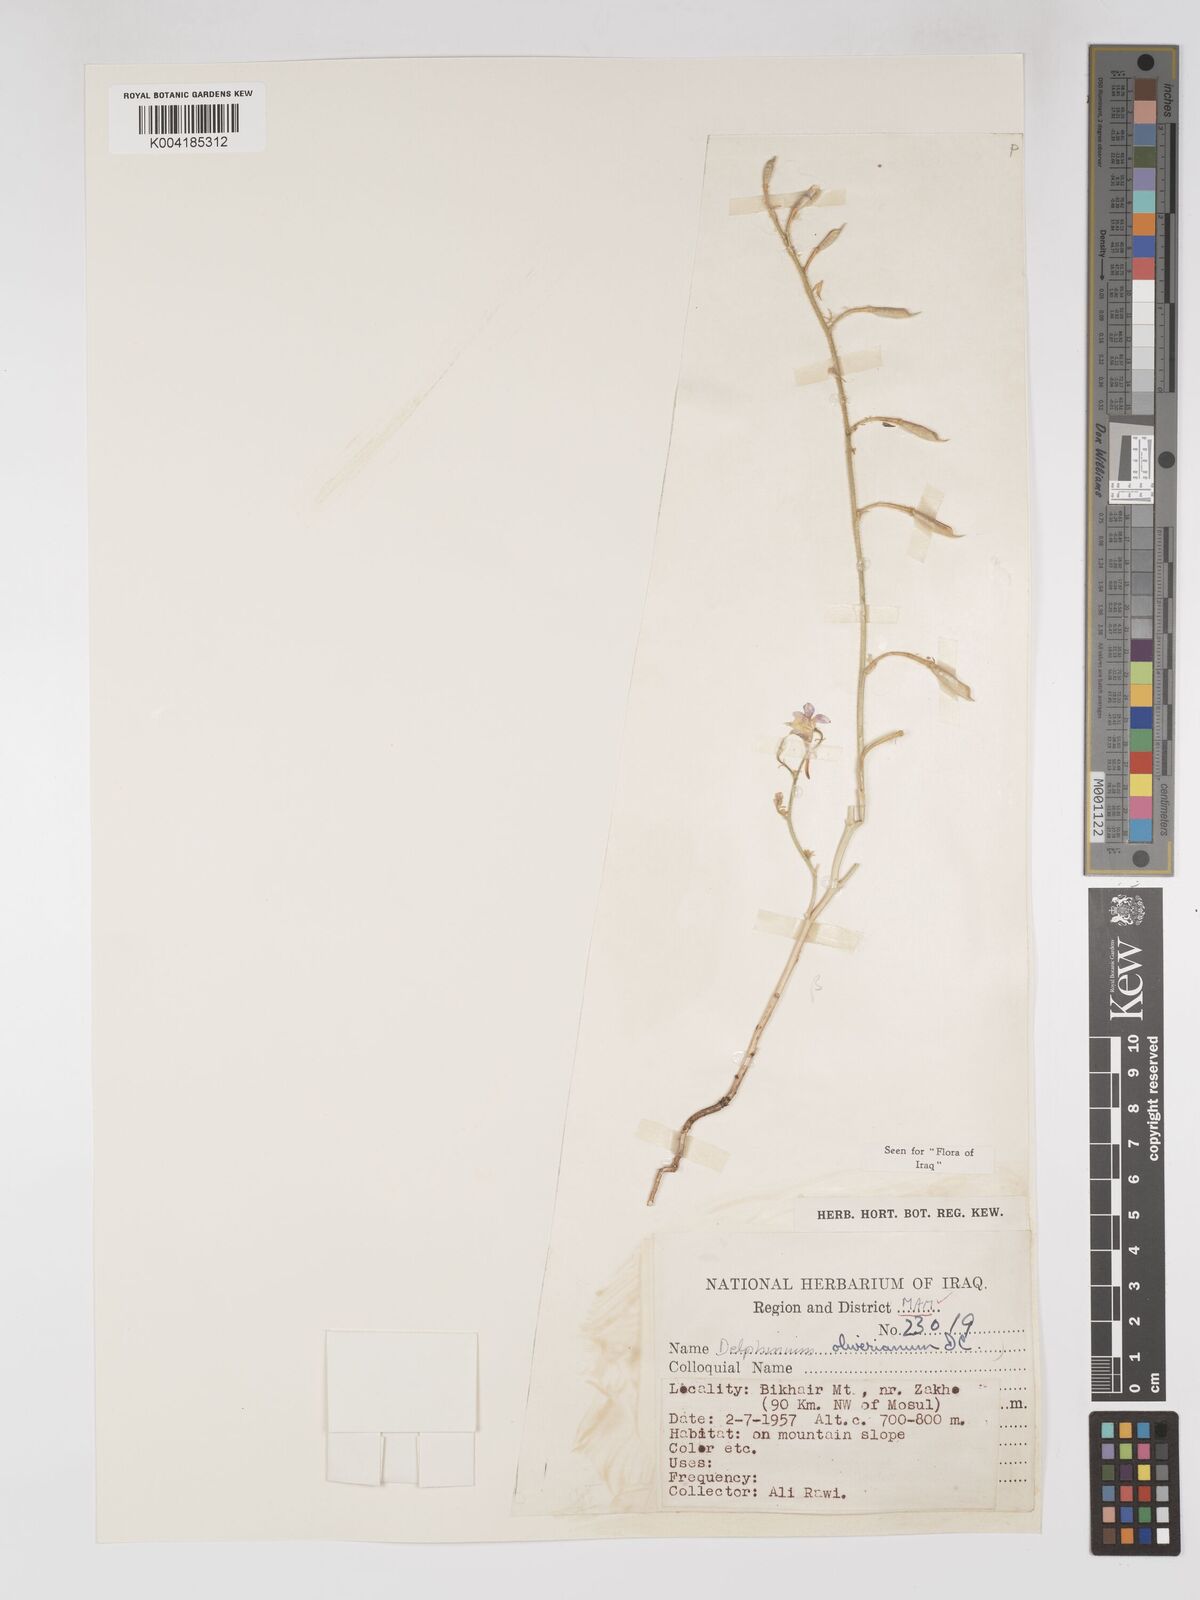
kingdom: Plantae
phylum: Tracheophyta
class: Magnoliopsida
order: Ranunculales
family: Ranunculaceae
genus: Delphinium
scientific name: Delphinium oliverianum
